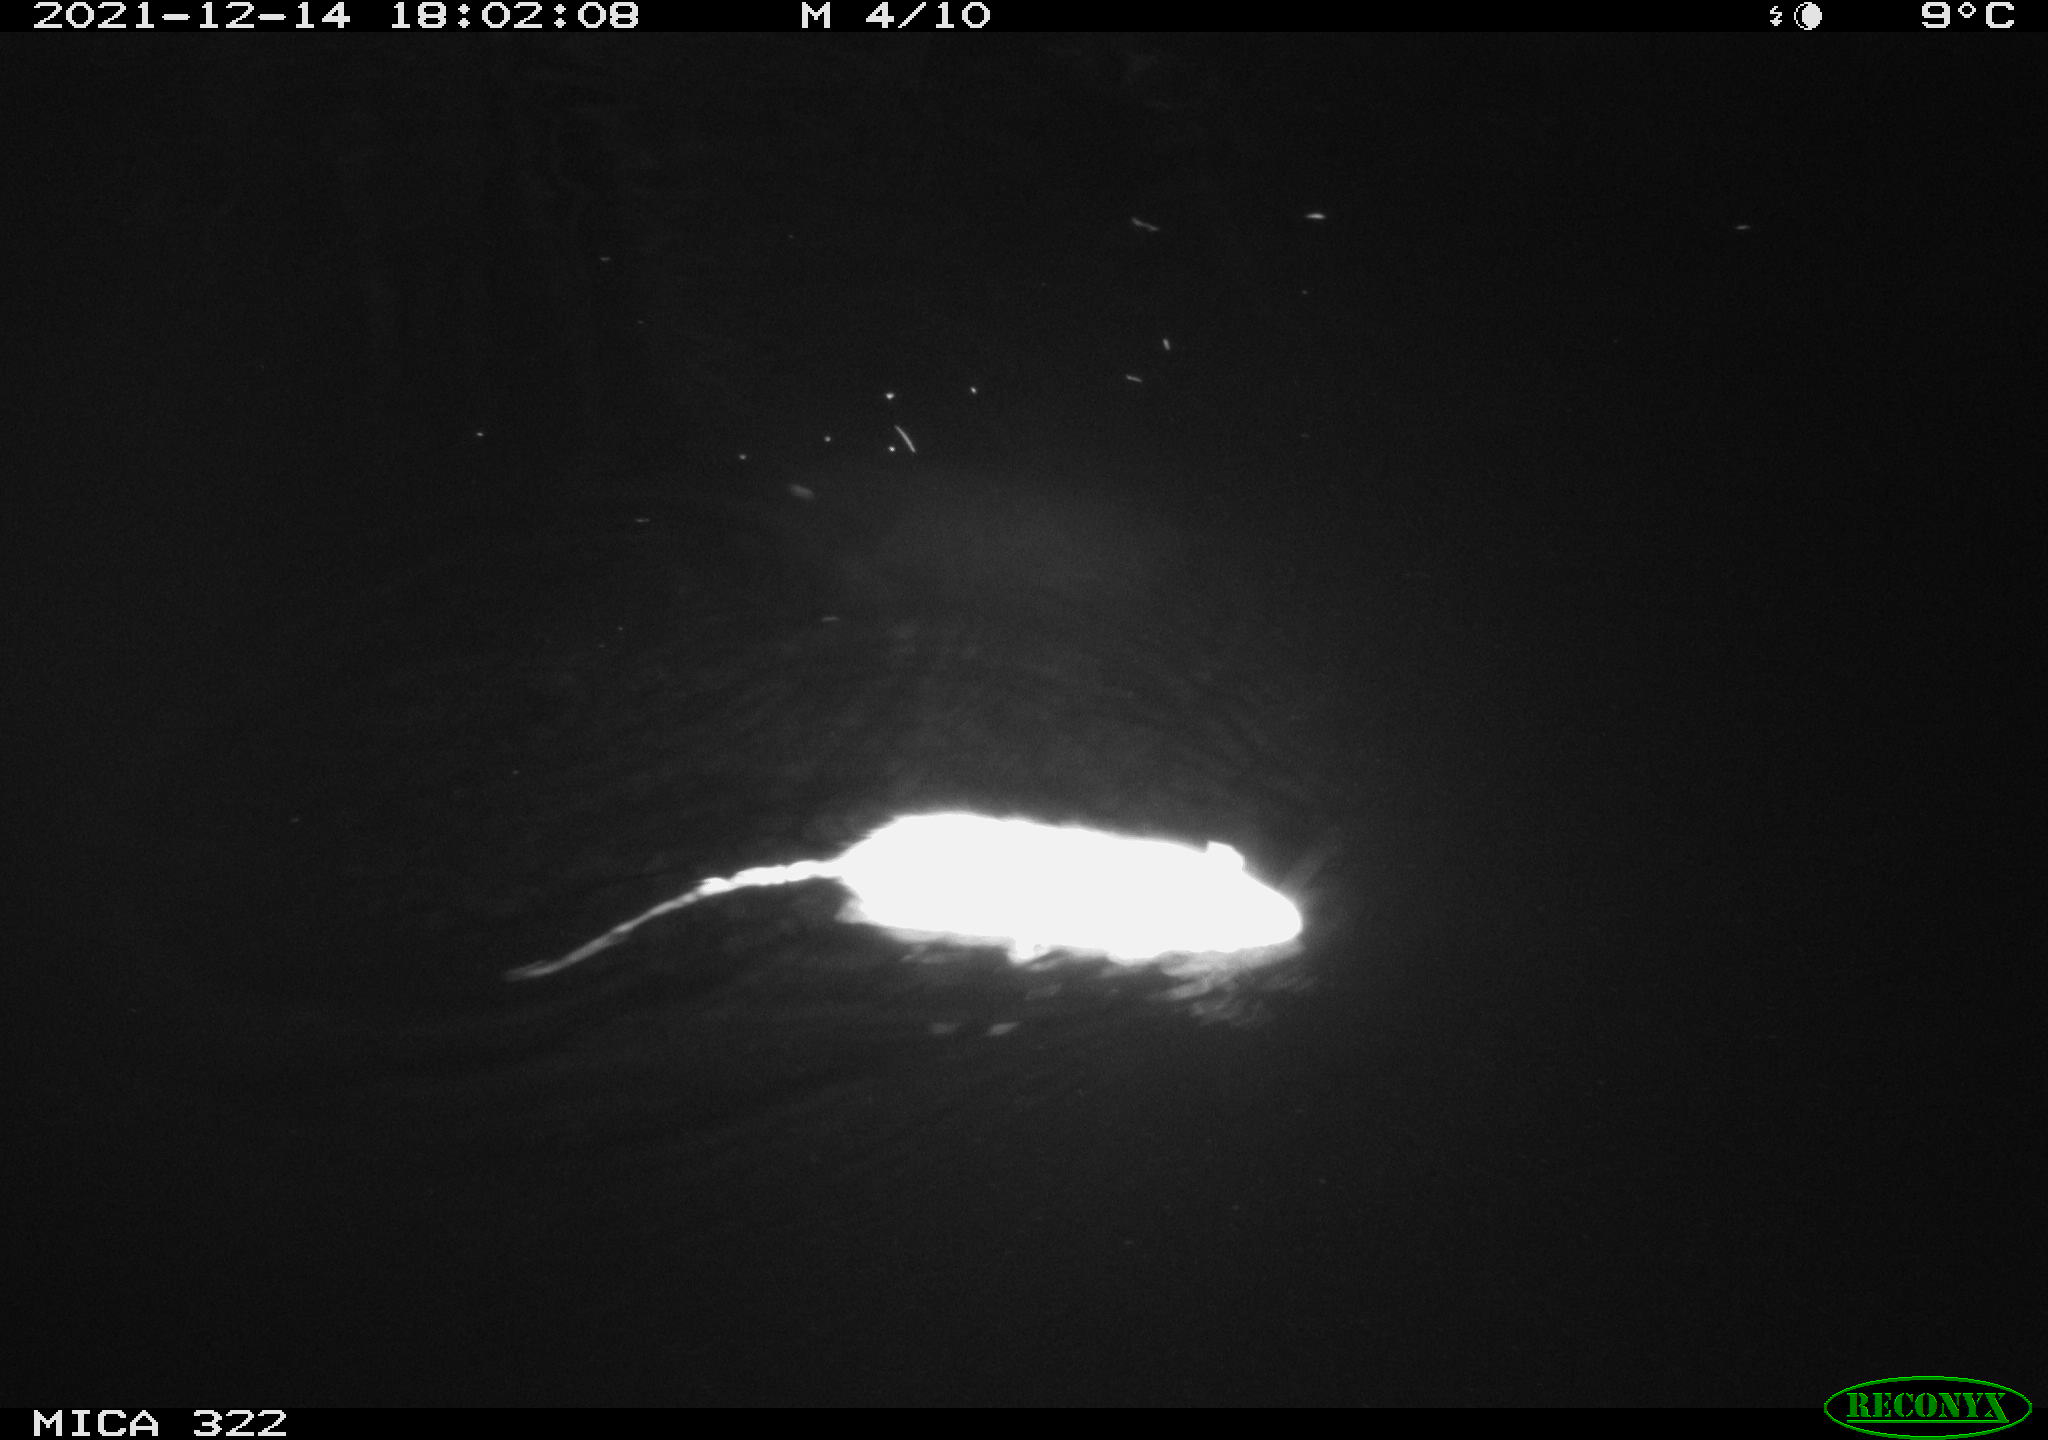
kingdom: Animalia
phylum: Chordata
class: Mammalia
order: Rodentia
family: Muridae
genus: Rattus
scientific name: Rattus norvegicus
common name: Brown rat
